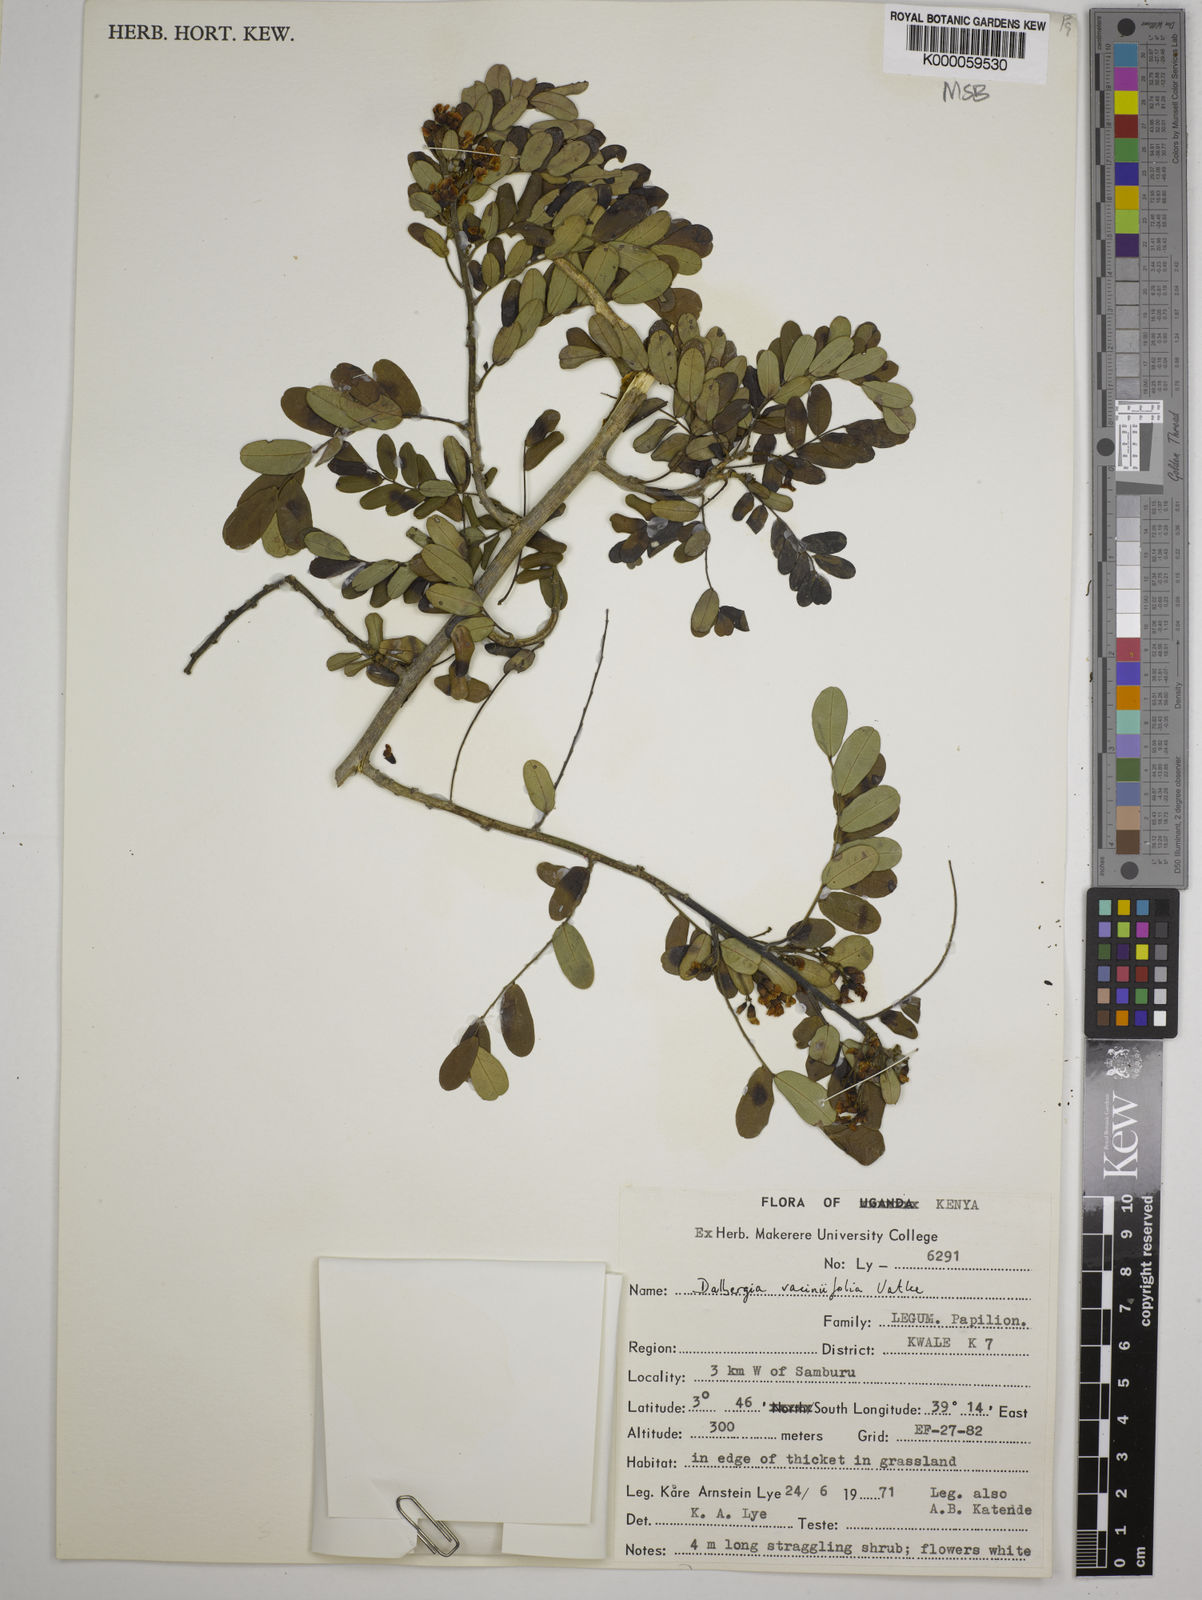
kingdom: Plantae
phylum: Tracheophyta
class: Magnoliopsida
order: Fabales
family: Fabaceae
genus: Dalbergia
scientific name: Dalbergia vacciniifolia
